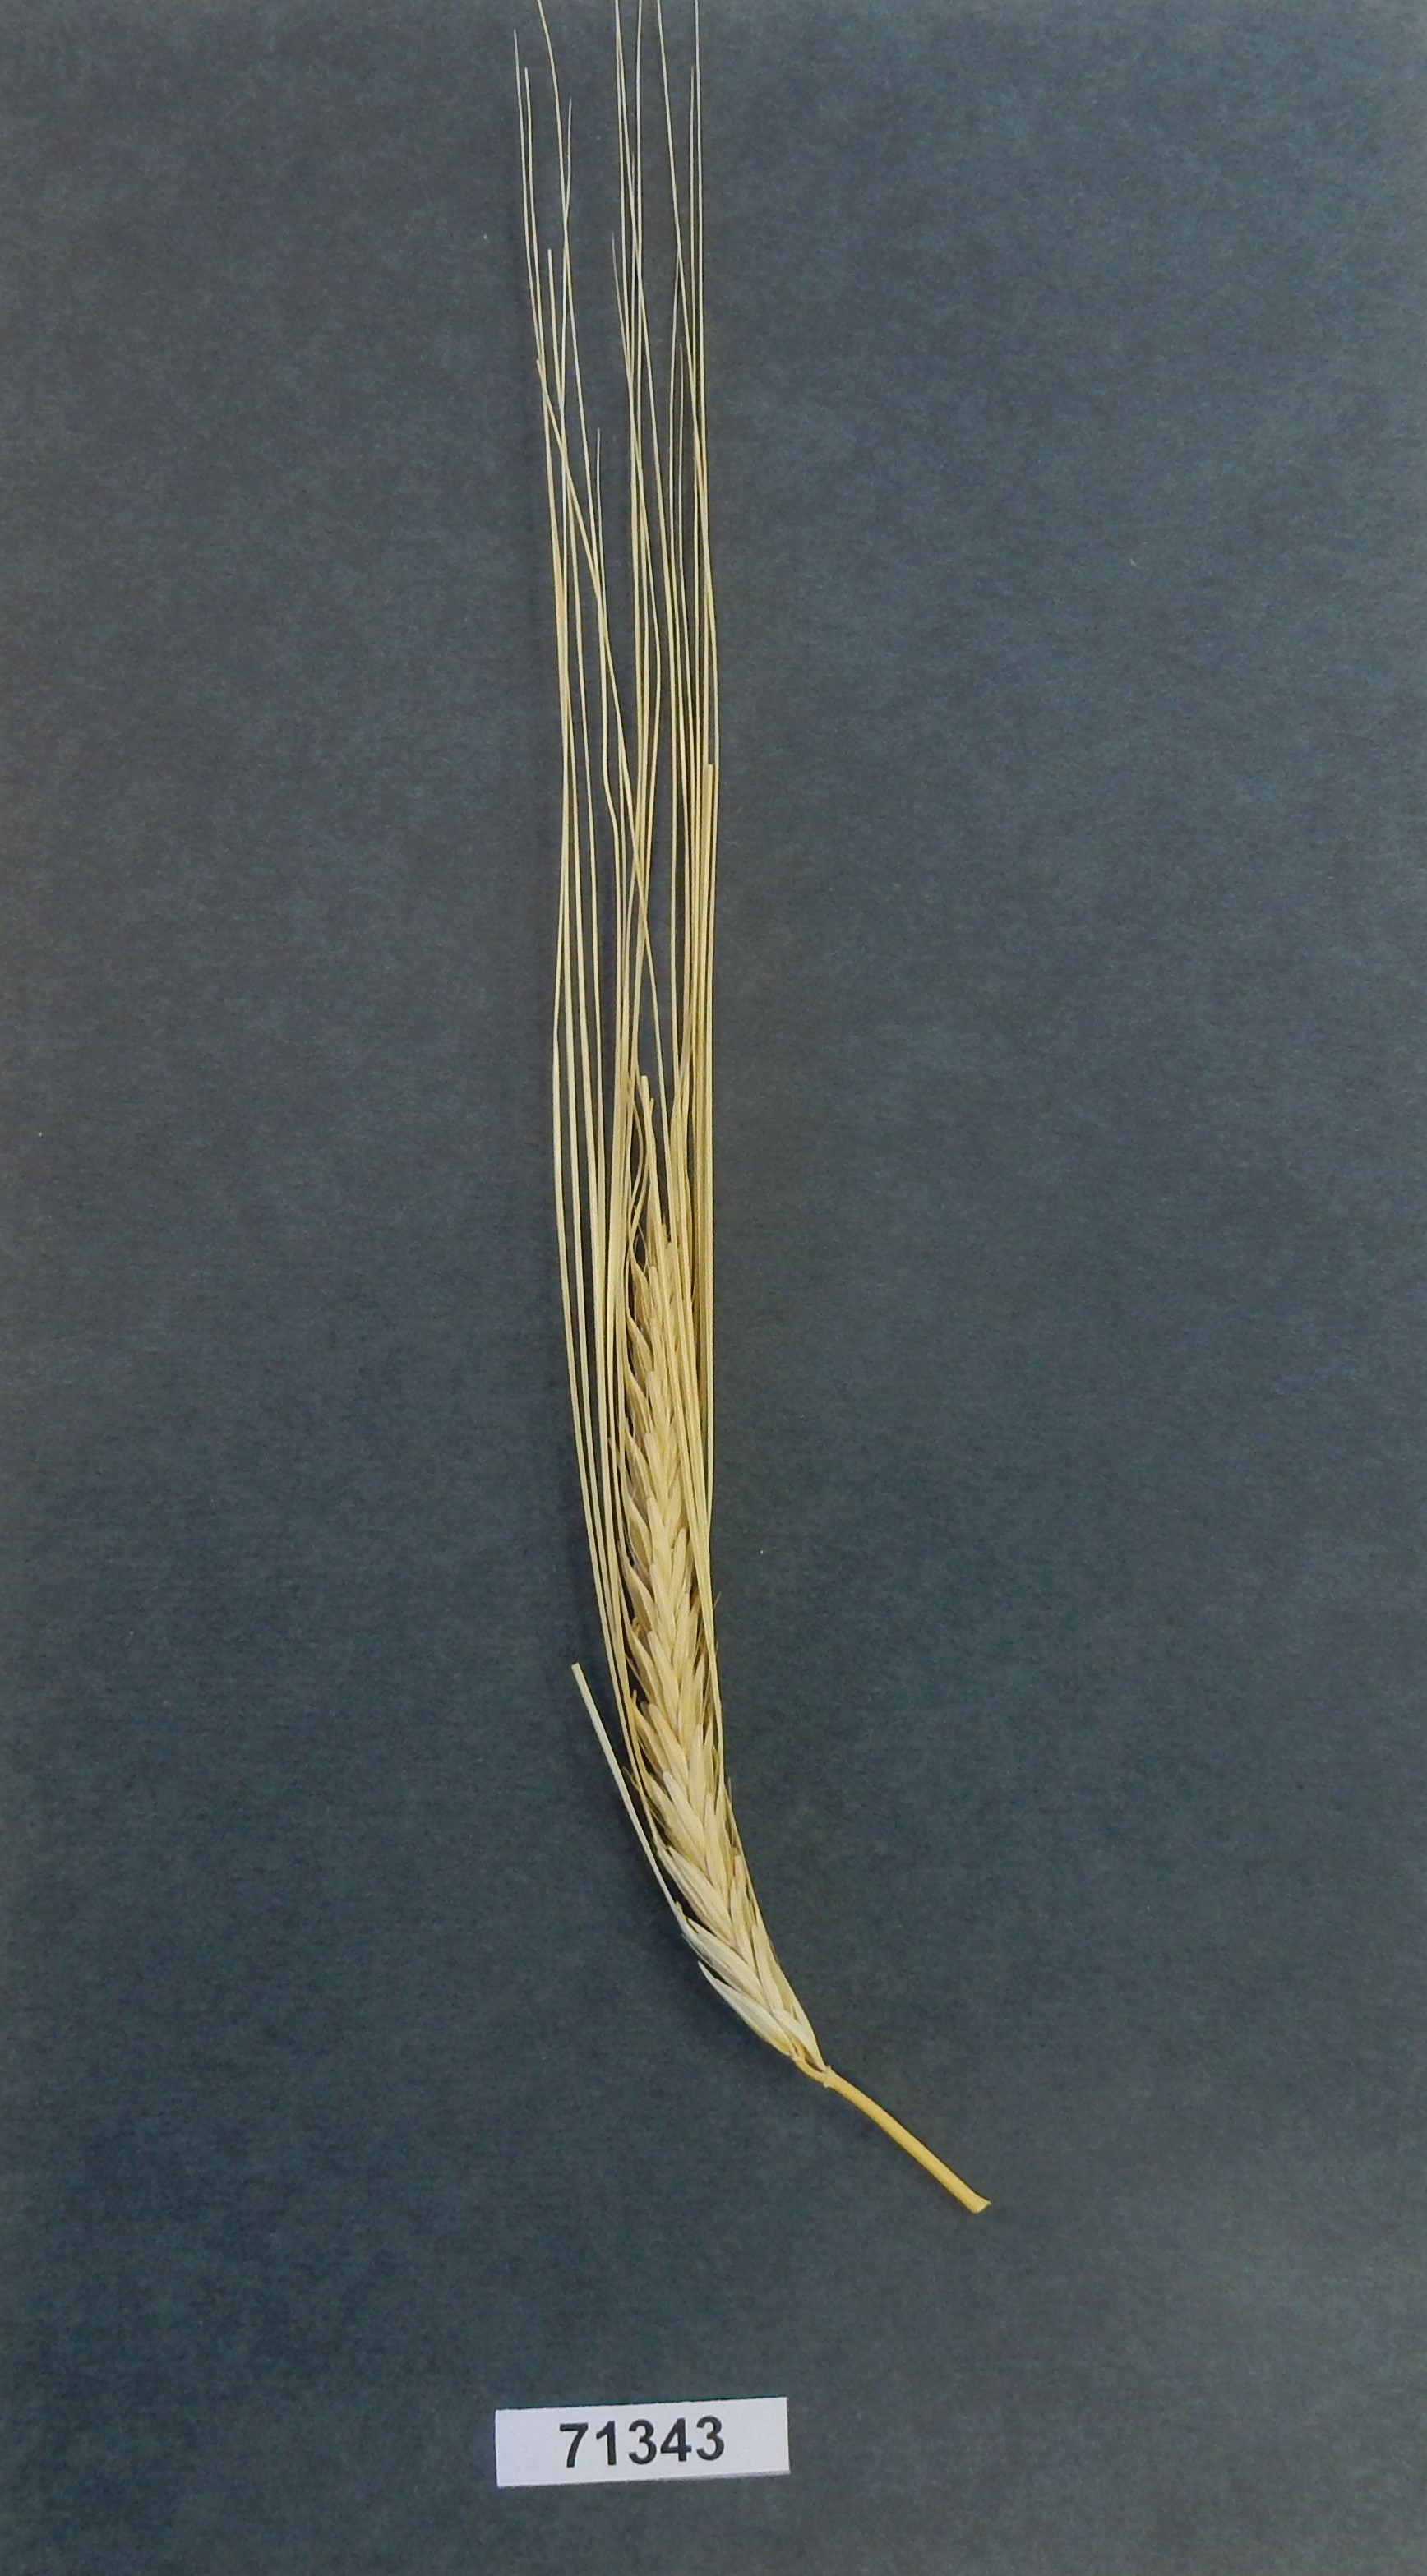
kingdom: Plantae
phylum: Tracheophyta
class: Liliopsida
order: Poales
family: Poaceae
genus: Hordeum
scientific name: Hordeum vulgare
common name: Barley
